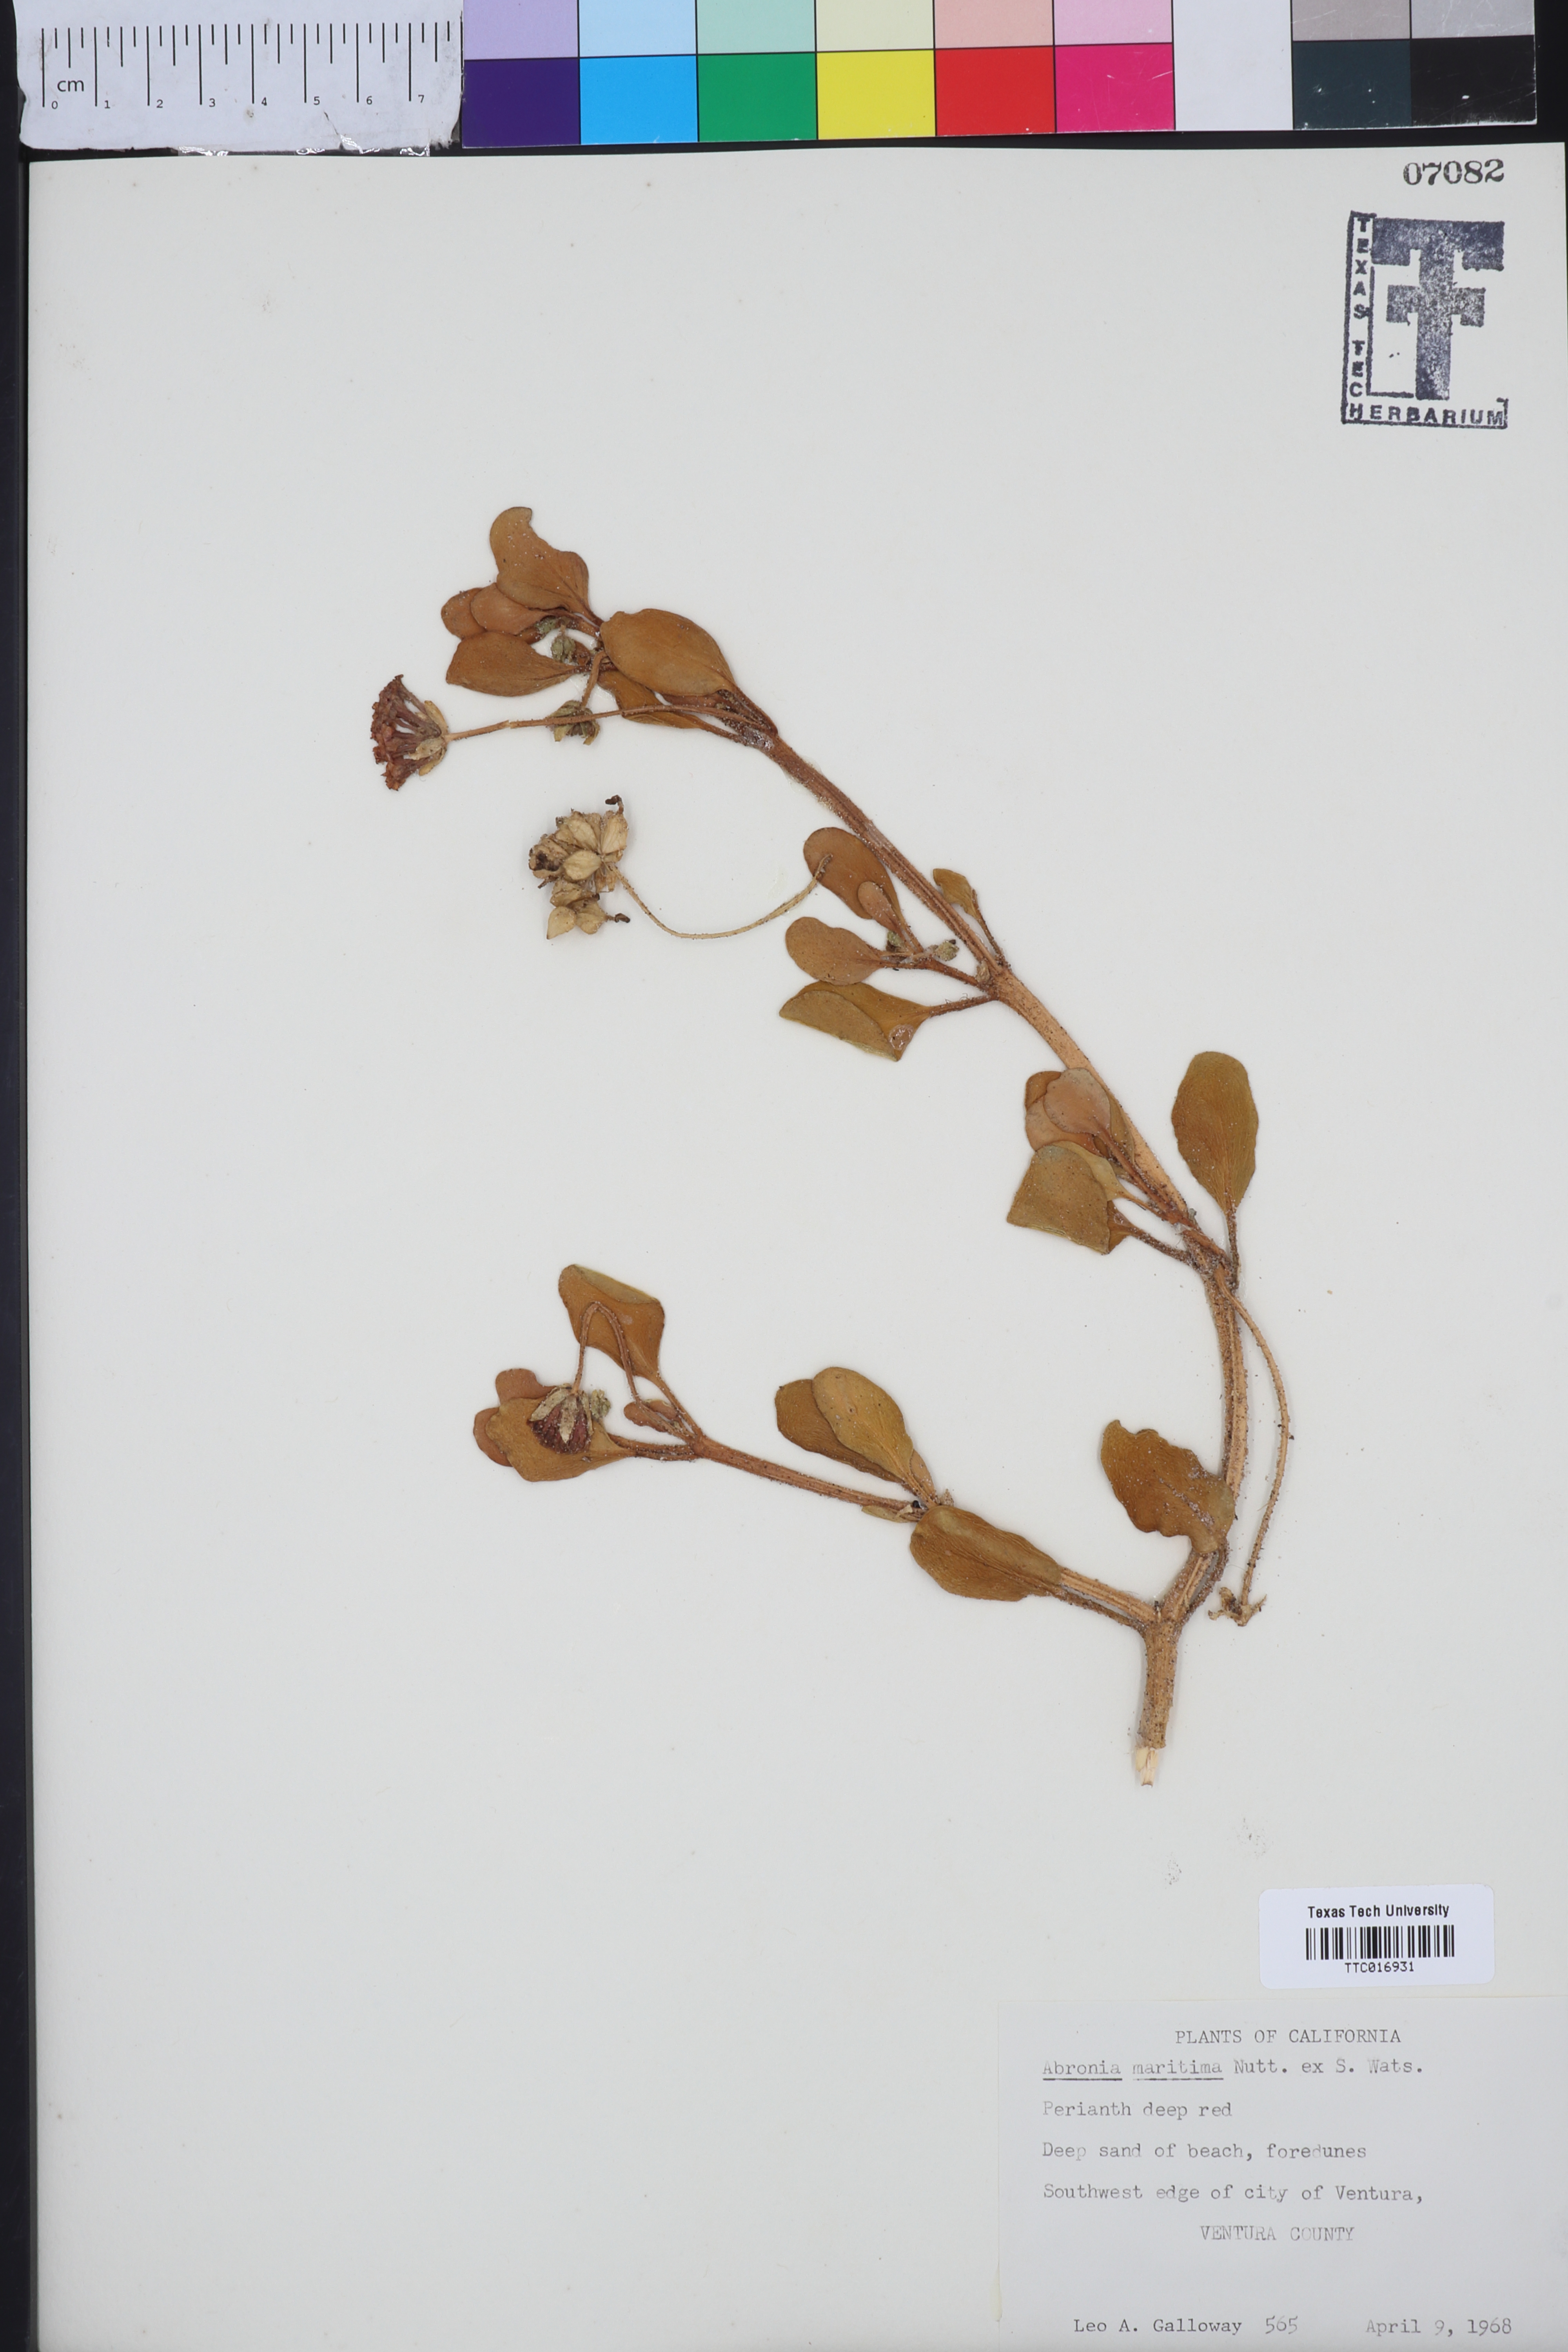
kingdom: Plantae
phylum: Tracheophyta
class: Magnoliopsida
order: Caryophyllales
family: Nyctaginaceae
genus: Abronia
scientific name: Abronia maritima
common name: Red sand-verbena
